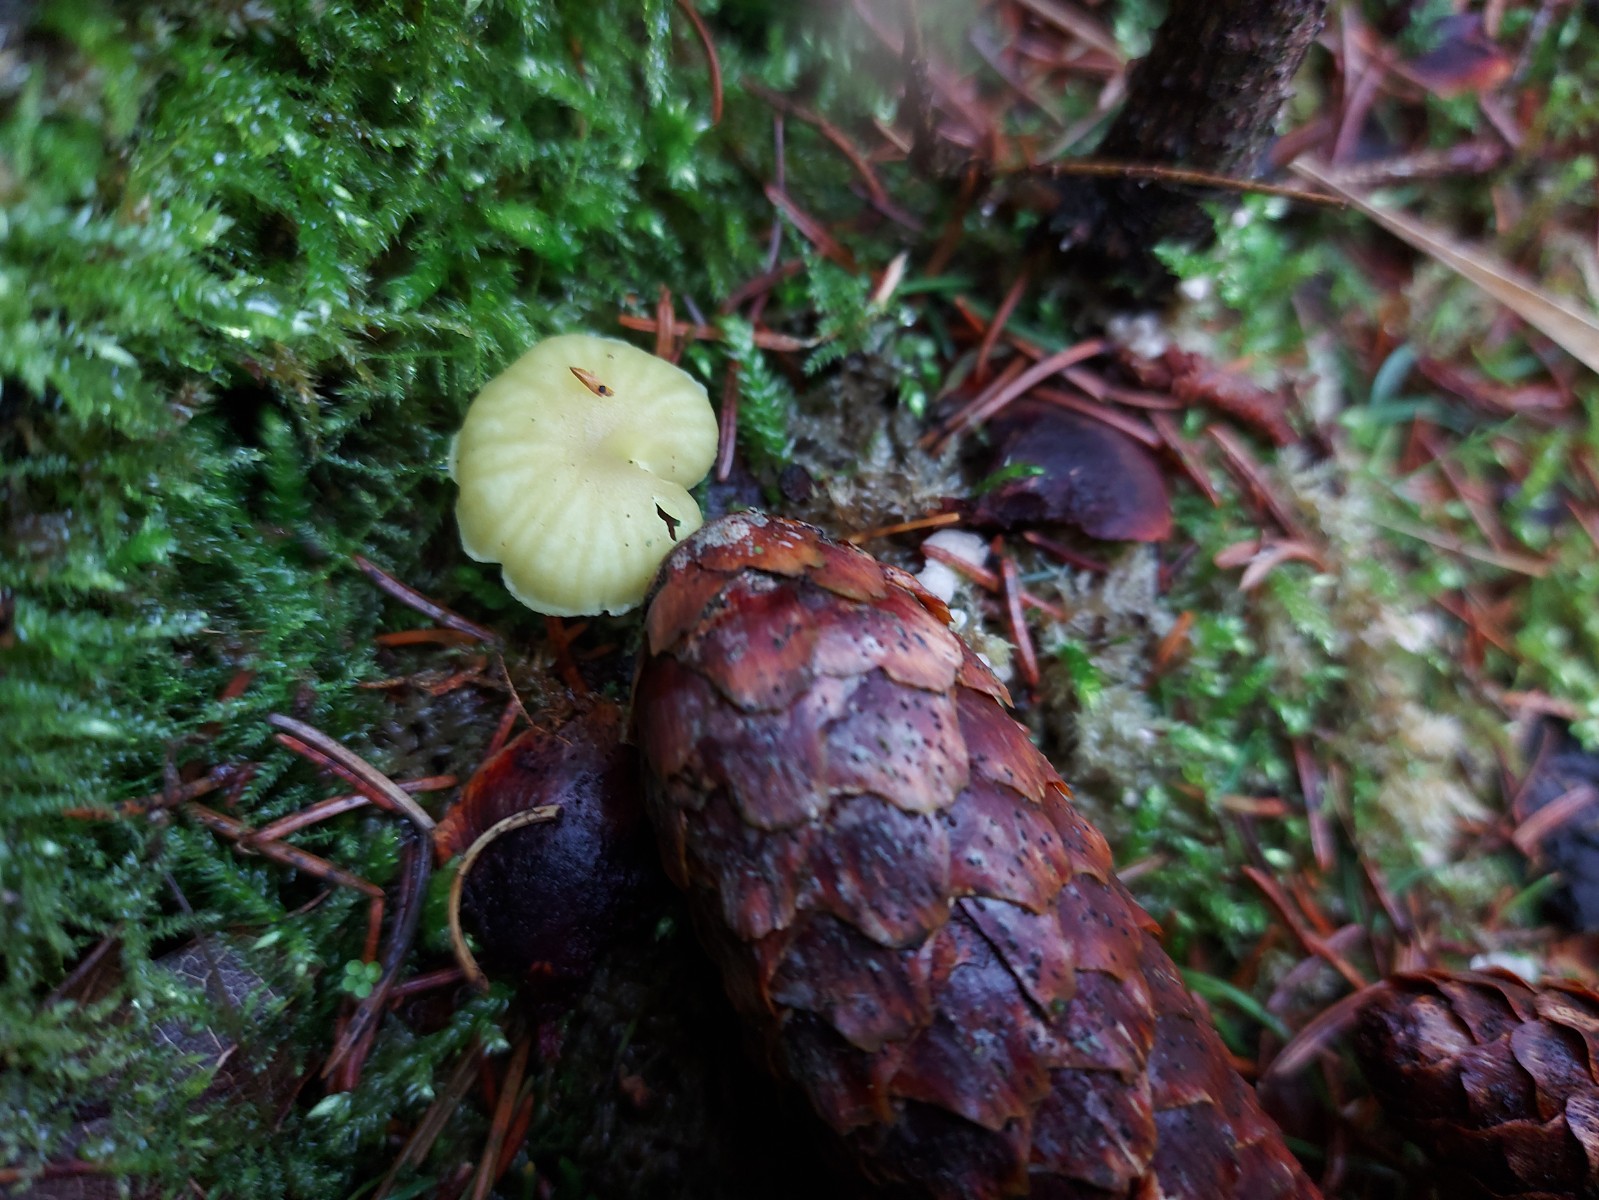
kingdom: Fungi
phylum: Basidiomycota
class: Agaricomycetes
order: Agaricales
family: Hygrophoraceae
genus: Chrysomphalina
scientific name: Chrysomphalina grossula
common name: stød-gyldenblad
